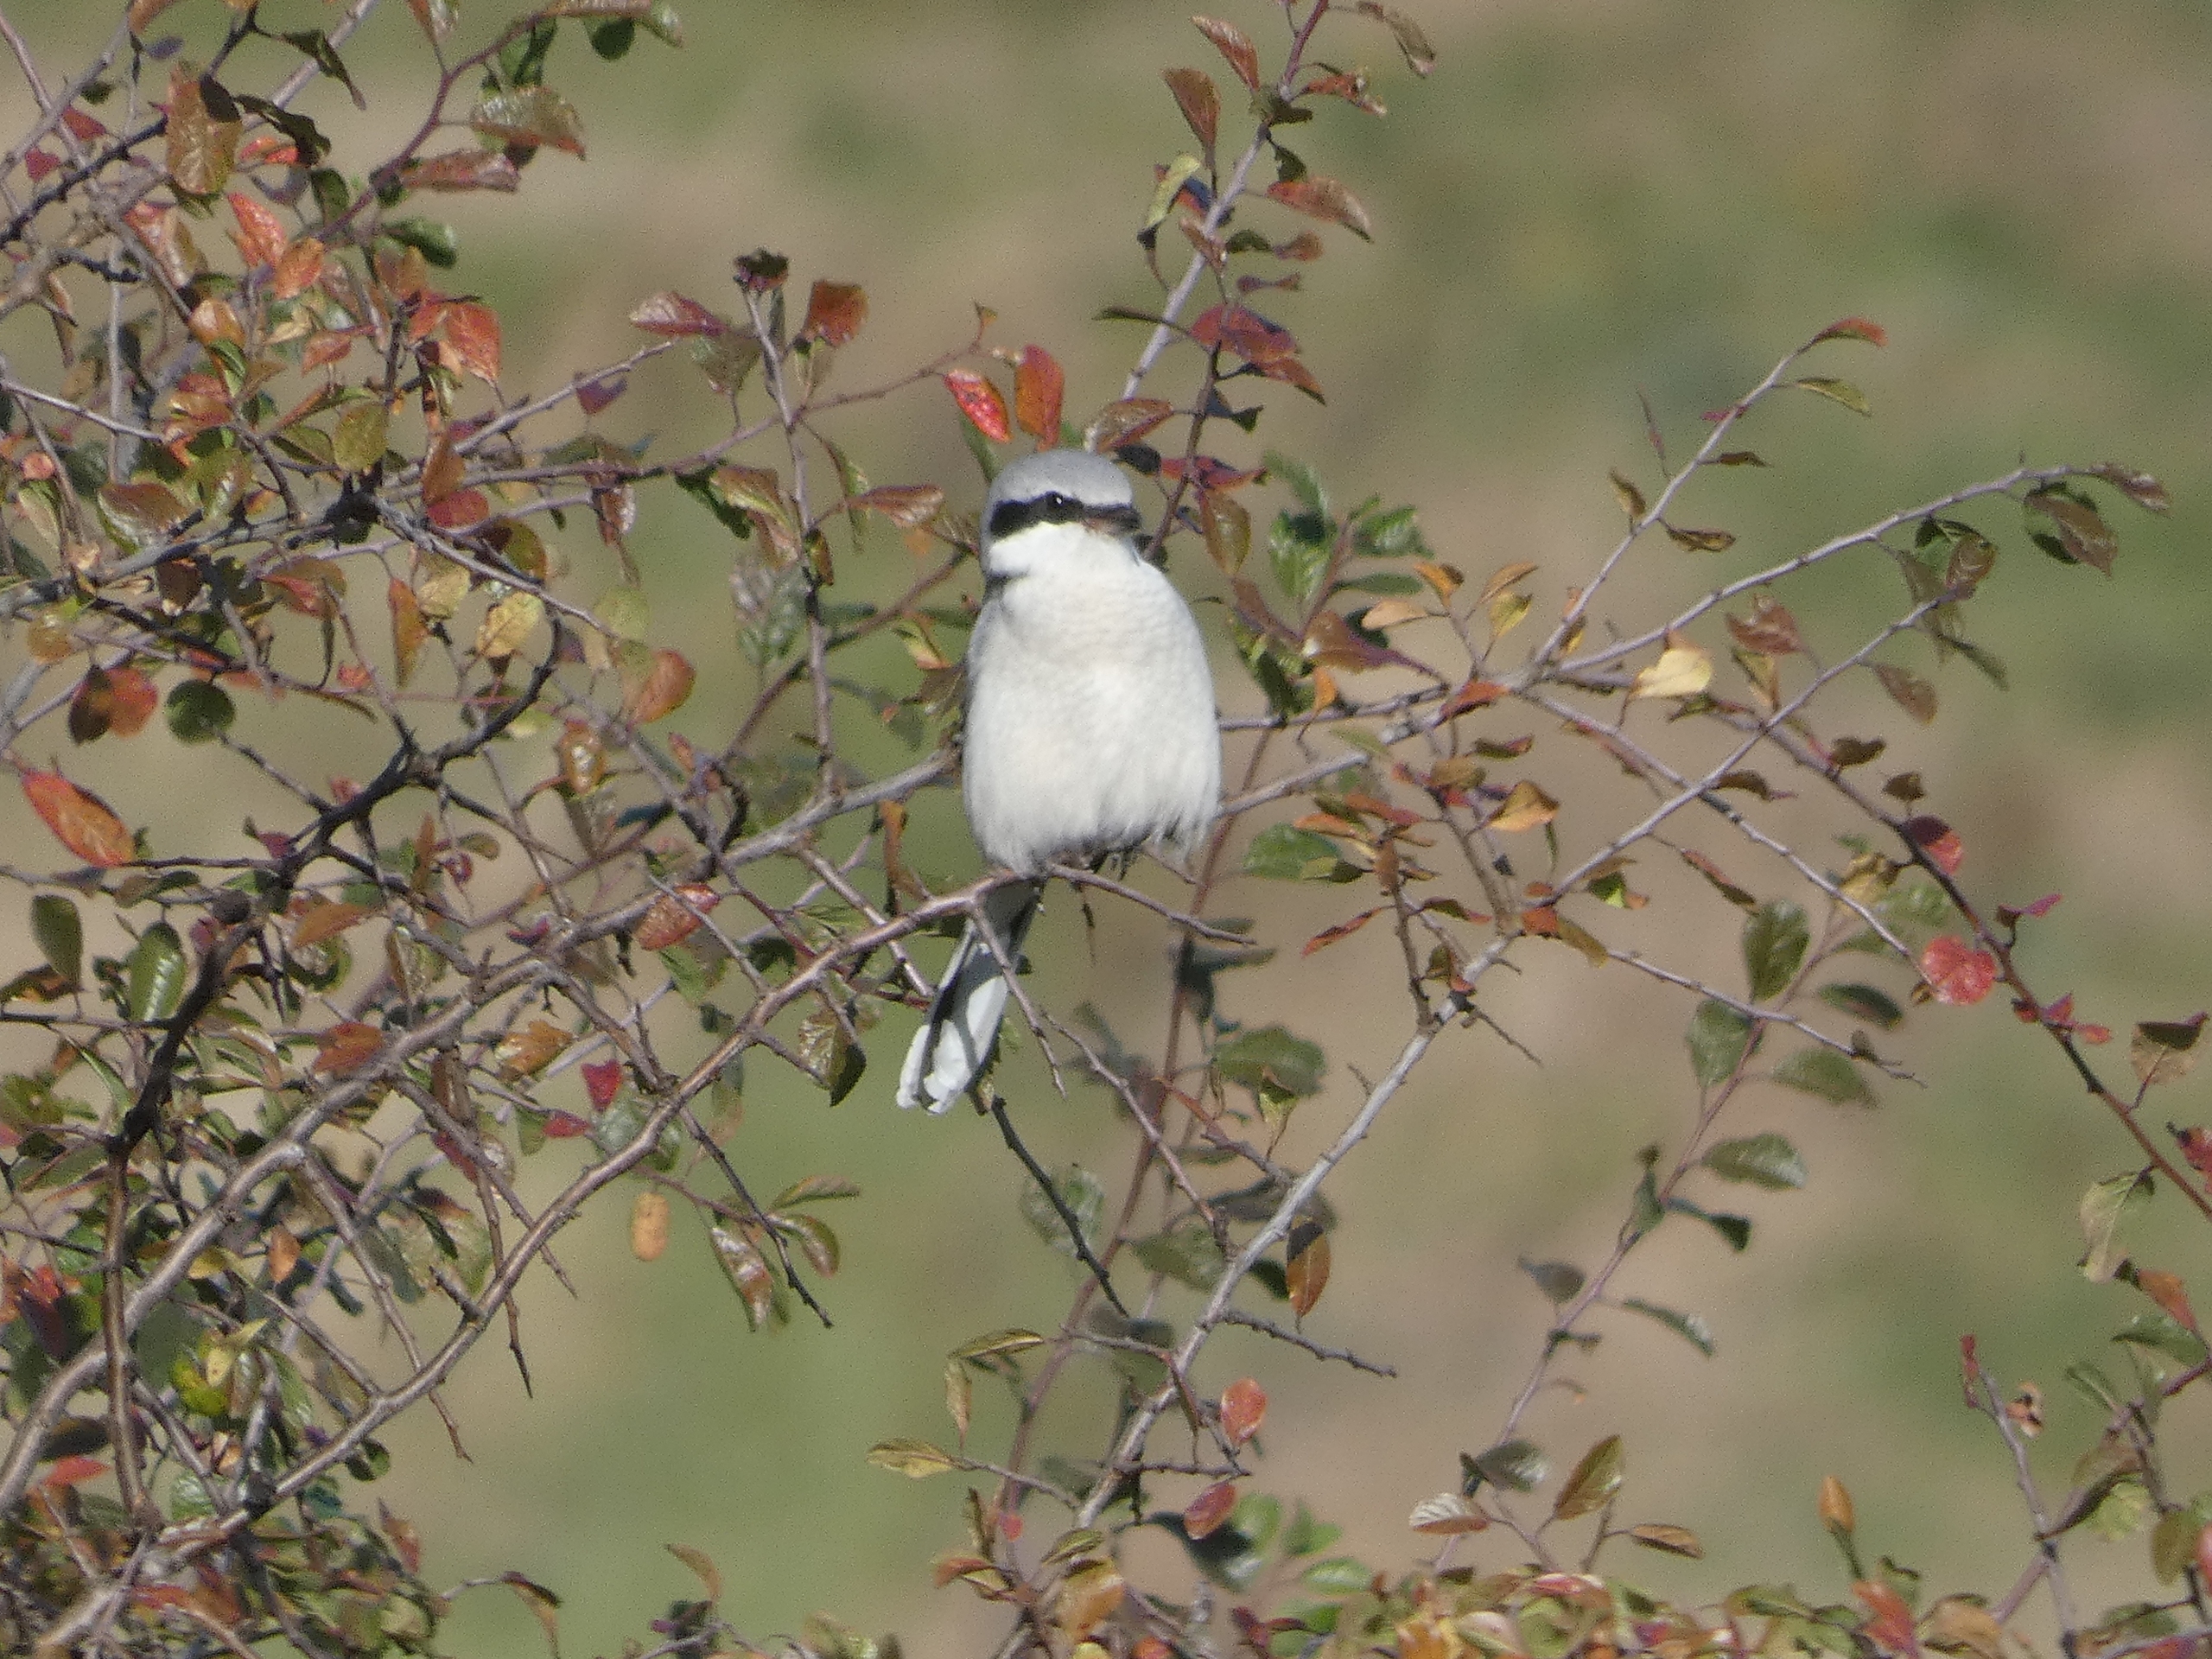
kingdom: Animalia
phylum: Chordata
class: Aves
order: Passeriformes
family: Laniidae
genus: Lanius
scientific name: Lanius excubitor
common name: Stor tornskade
